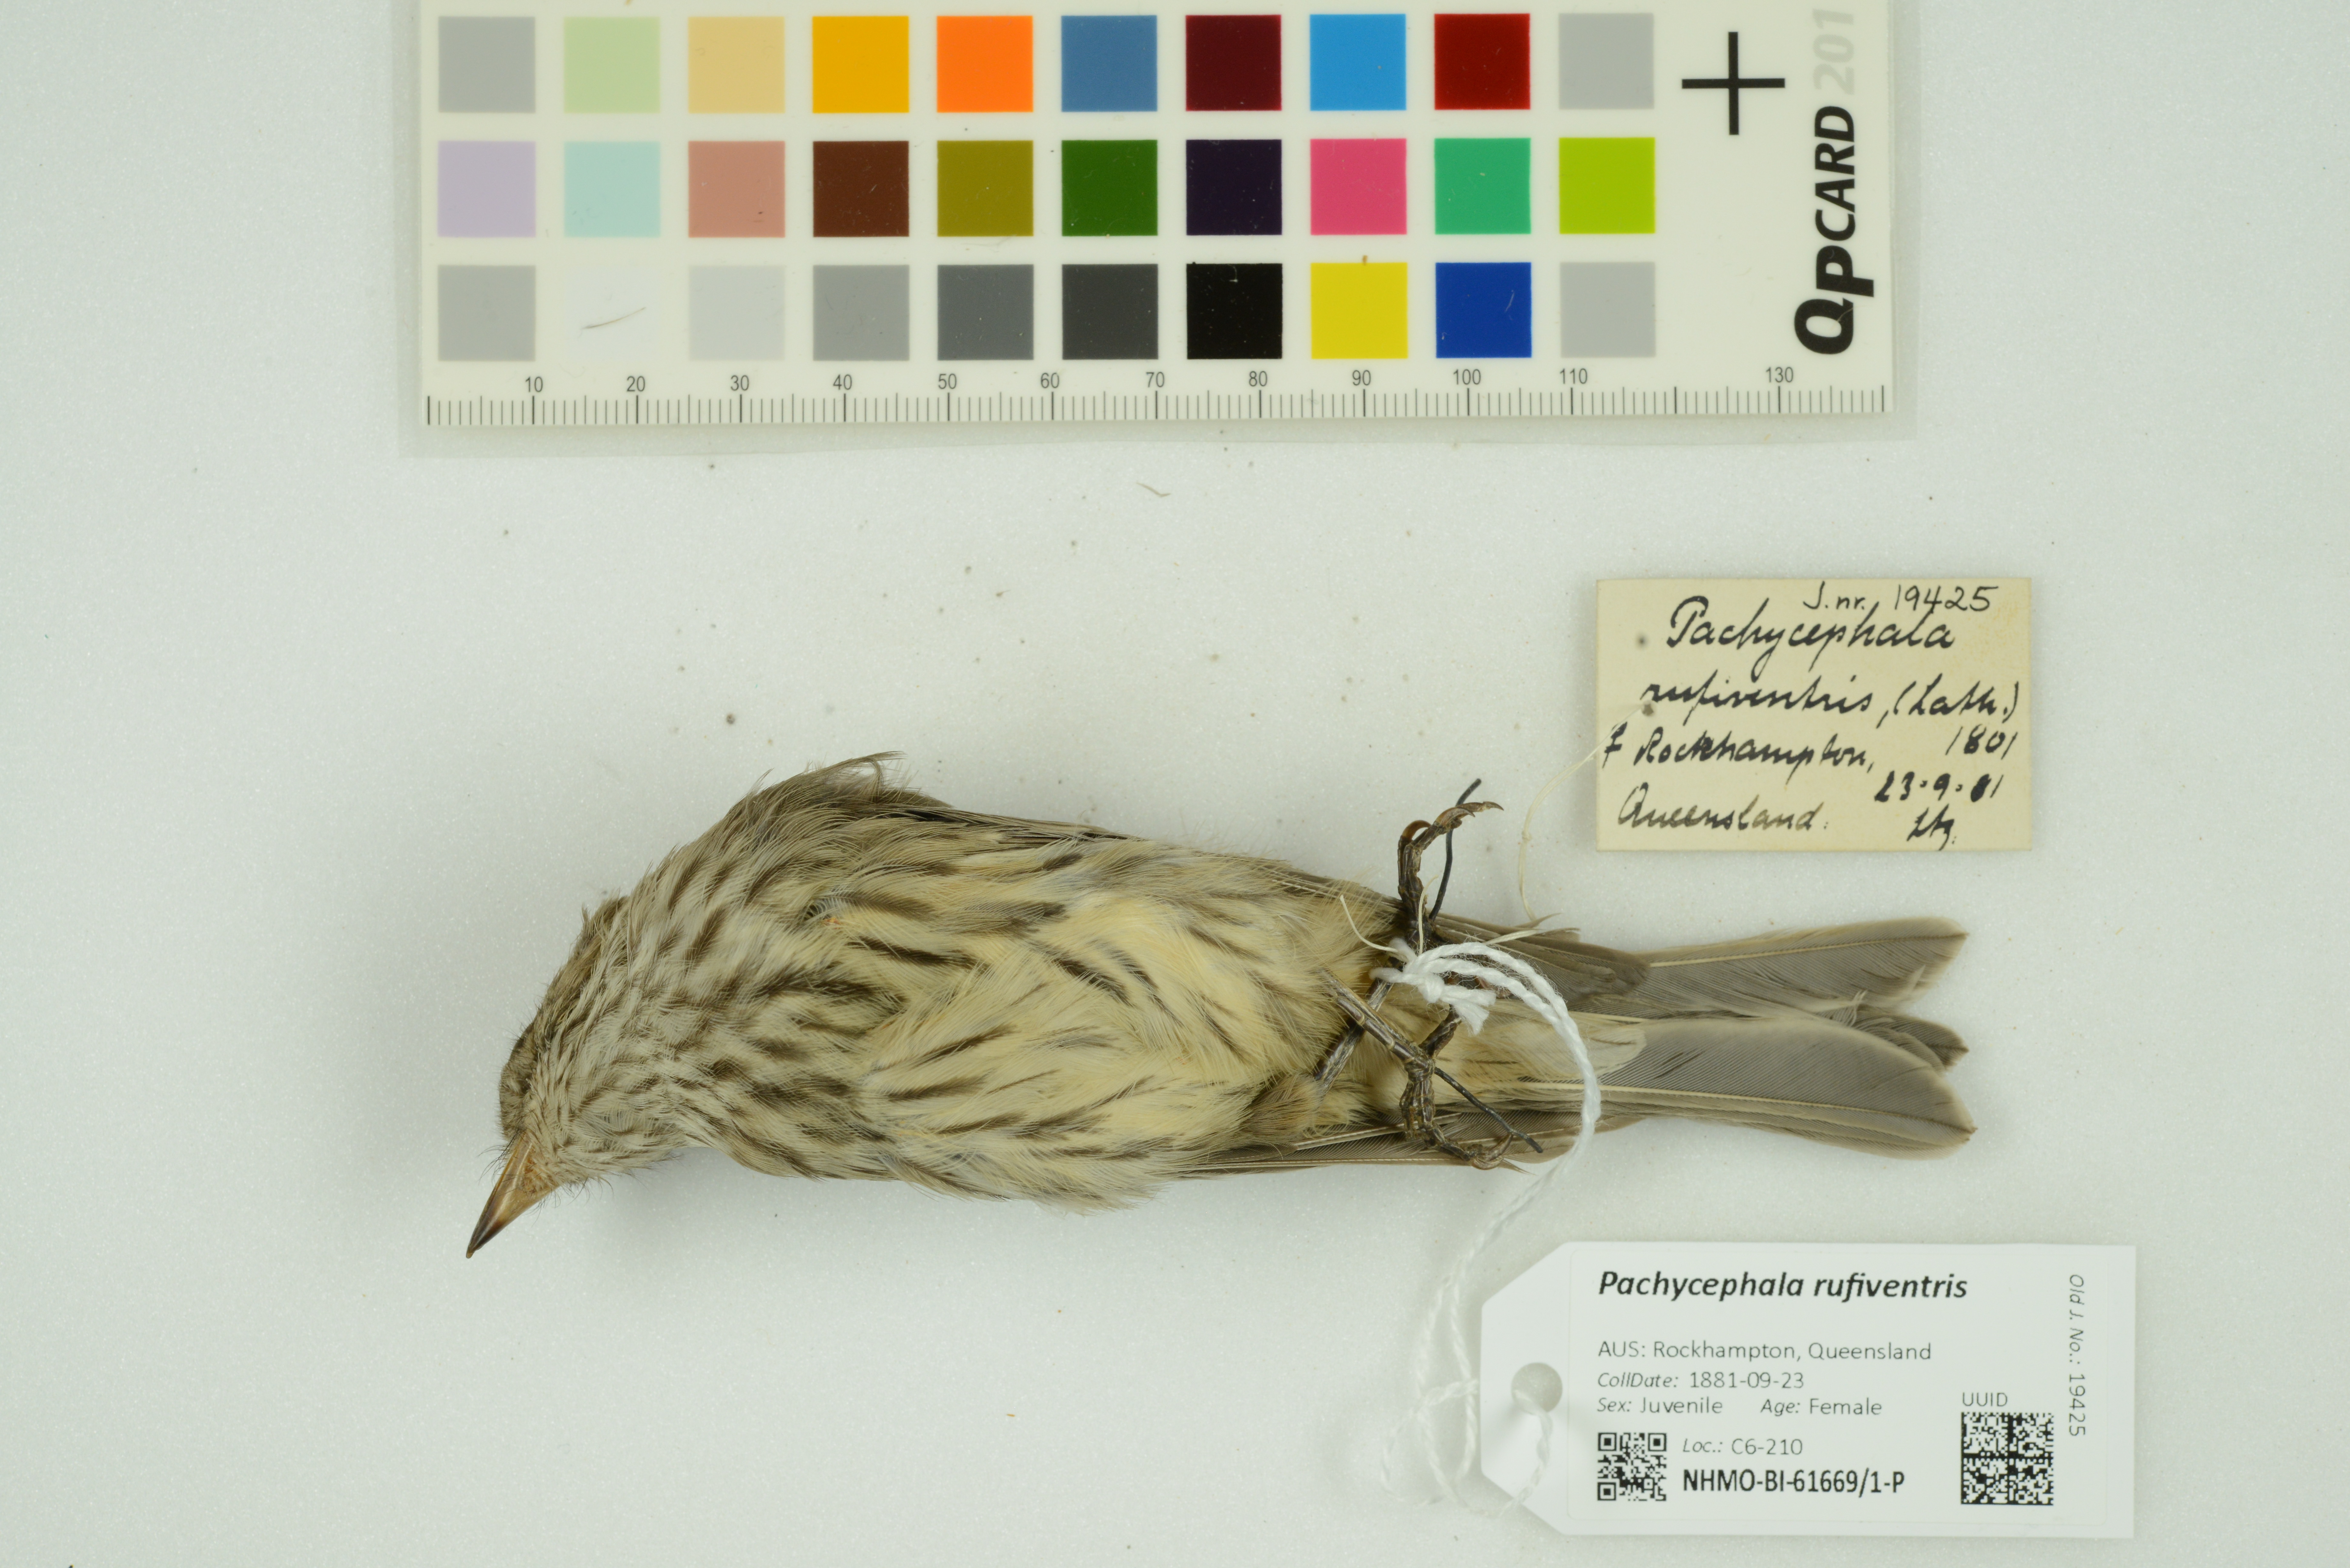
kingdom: Animalia
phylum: Chordata
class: Aves
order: Passeriformes
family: Pachycephalidae
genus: Pachycephala
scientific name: Pachycephala rufiventris
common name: Rufous whistler
